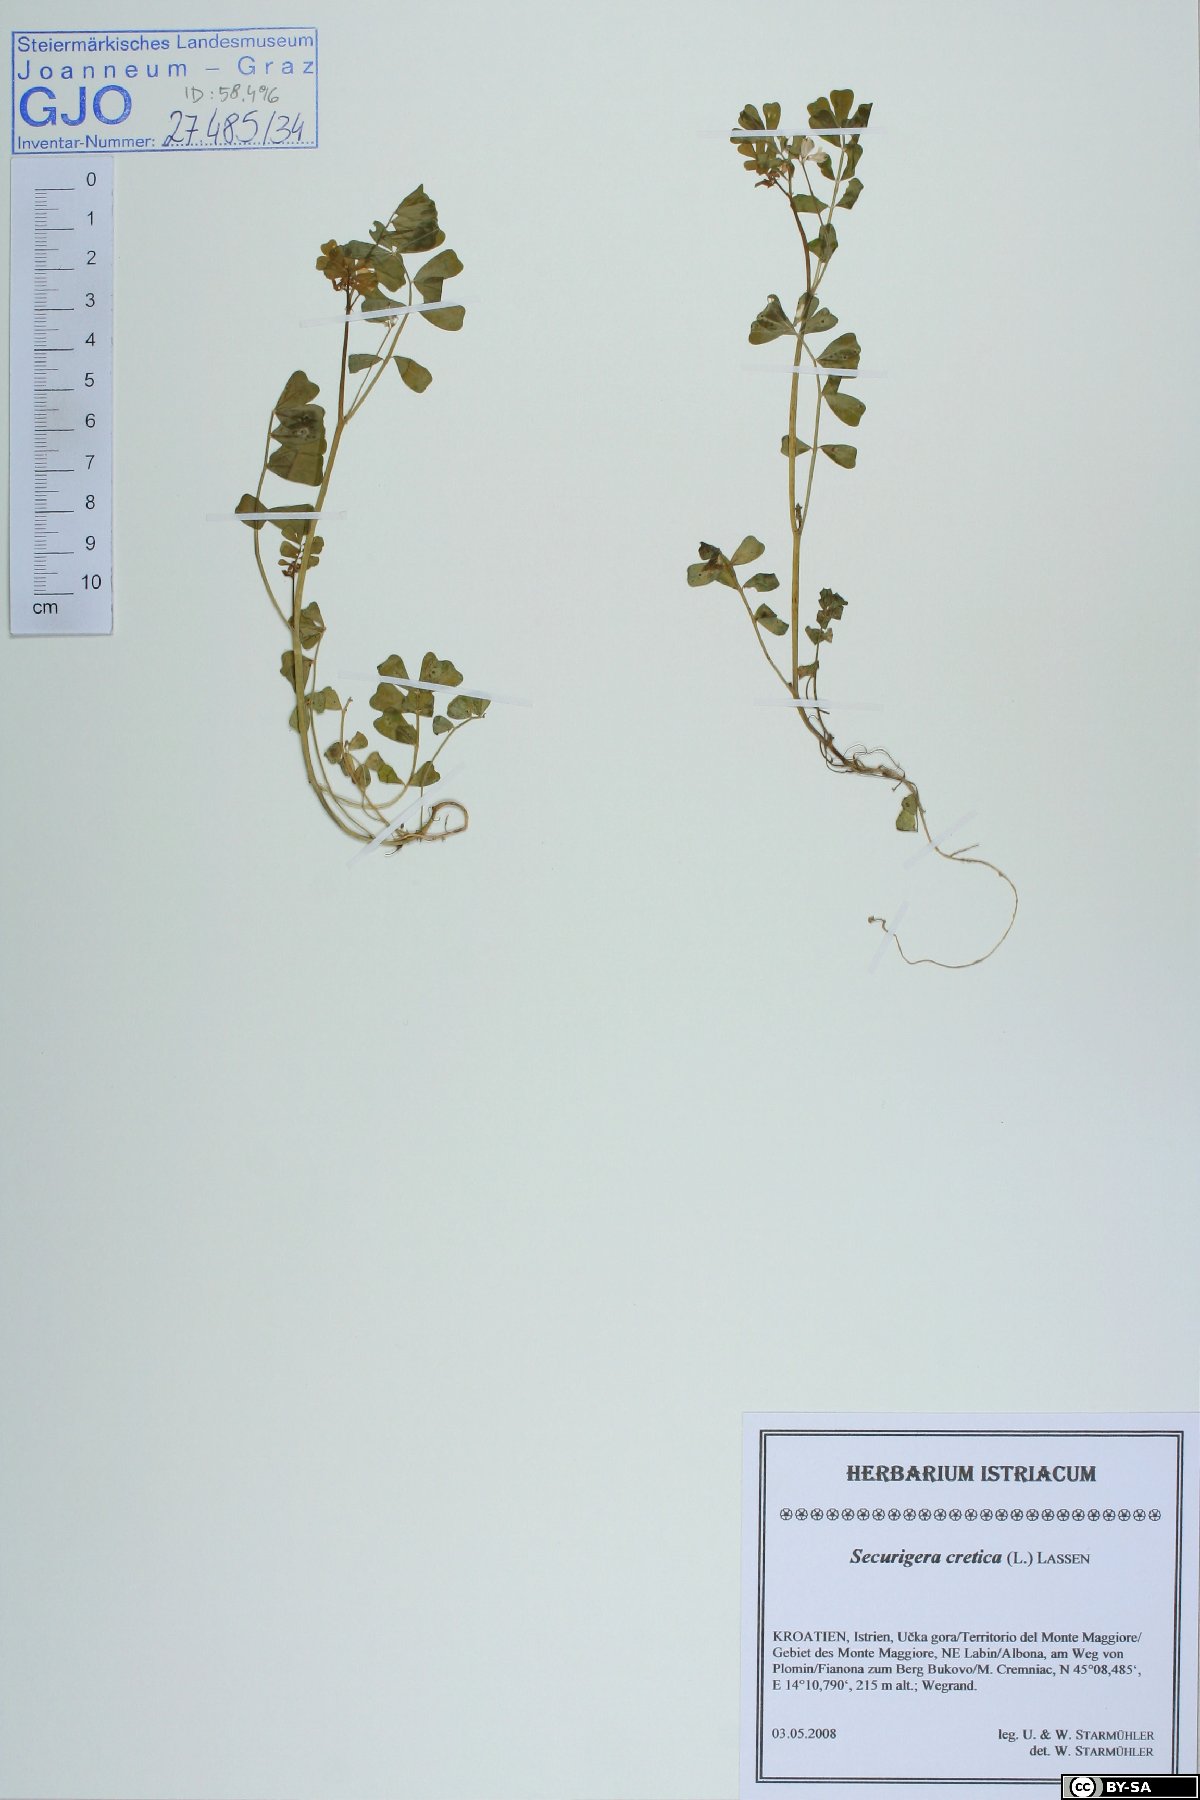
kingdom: Plantae
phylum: Tracheophyta
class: Magnoliopsida
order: Fabales
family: Fabaceae
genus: Coronilla
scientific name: Coronilla cretica
